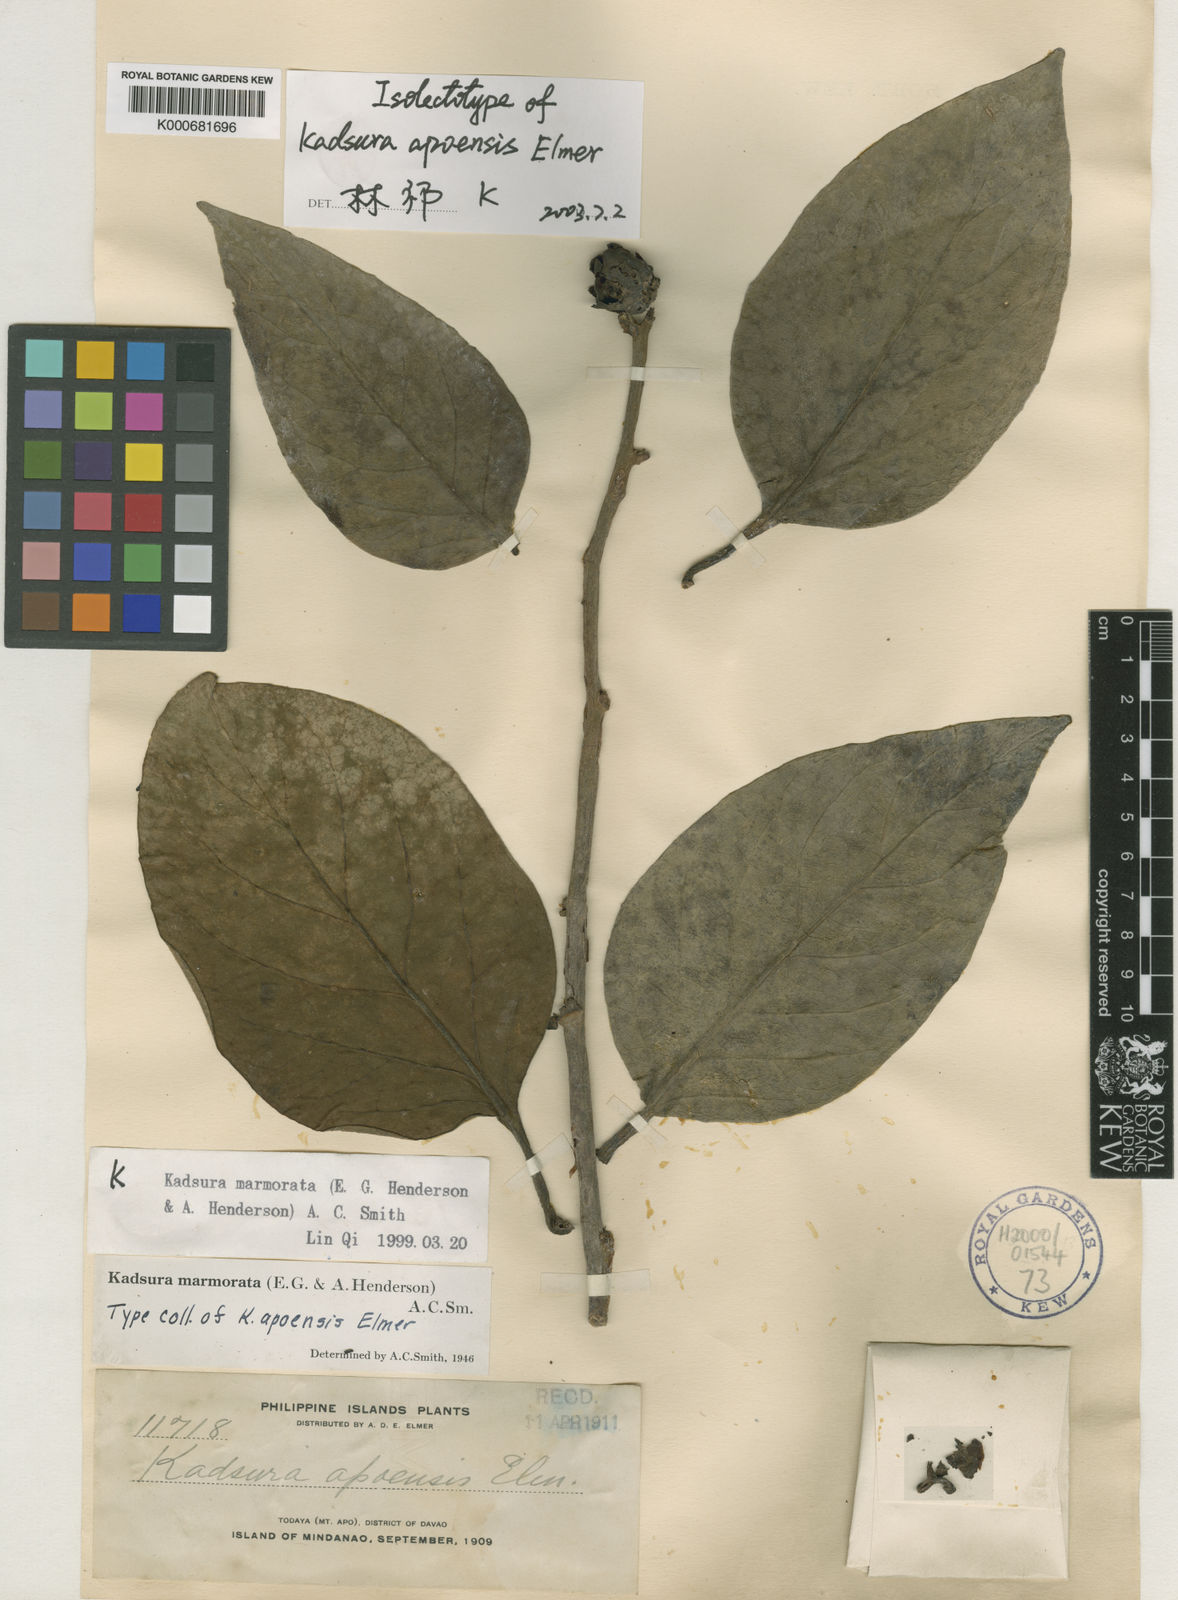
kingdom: Plantae
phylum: Tracheophyta
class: Magnoliopsida
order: Austrobaileyales
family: Schisandraceae
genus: Kadsura
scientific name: Kadsura
